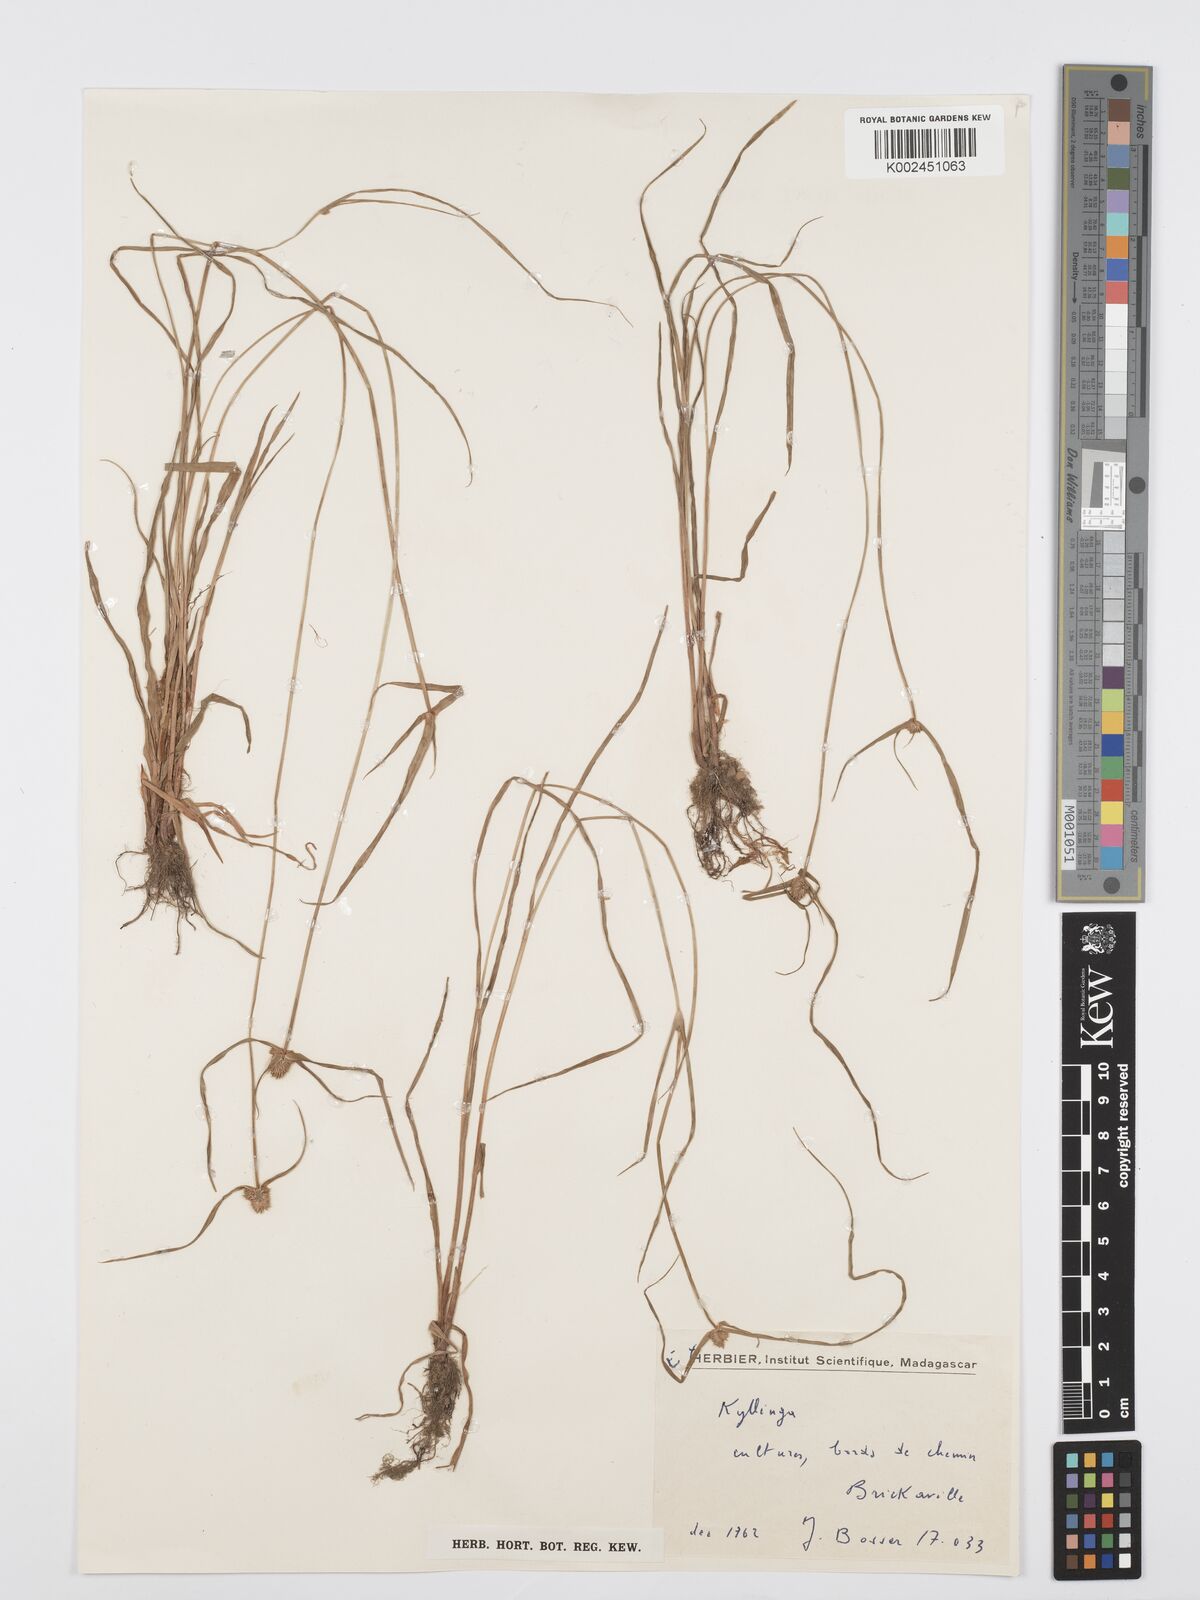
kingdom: Plantae
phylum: Tracheophyta
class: Liliopsida
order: Poales
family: Cyperaceae
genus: Cyperus
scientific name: Cyperus pumilus
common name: Low flatsedge
